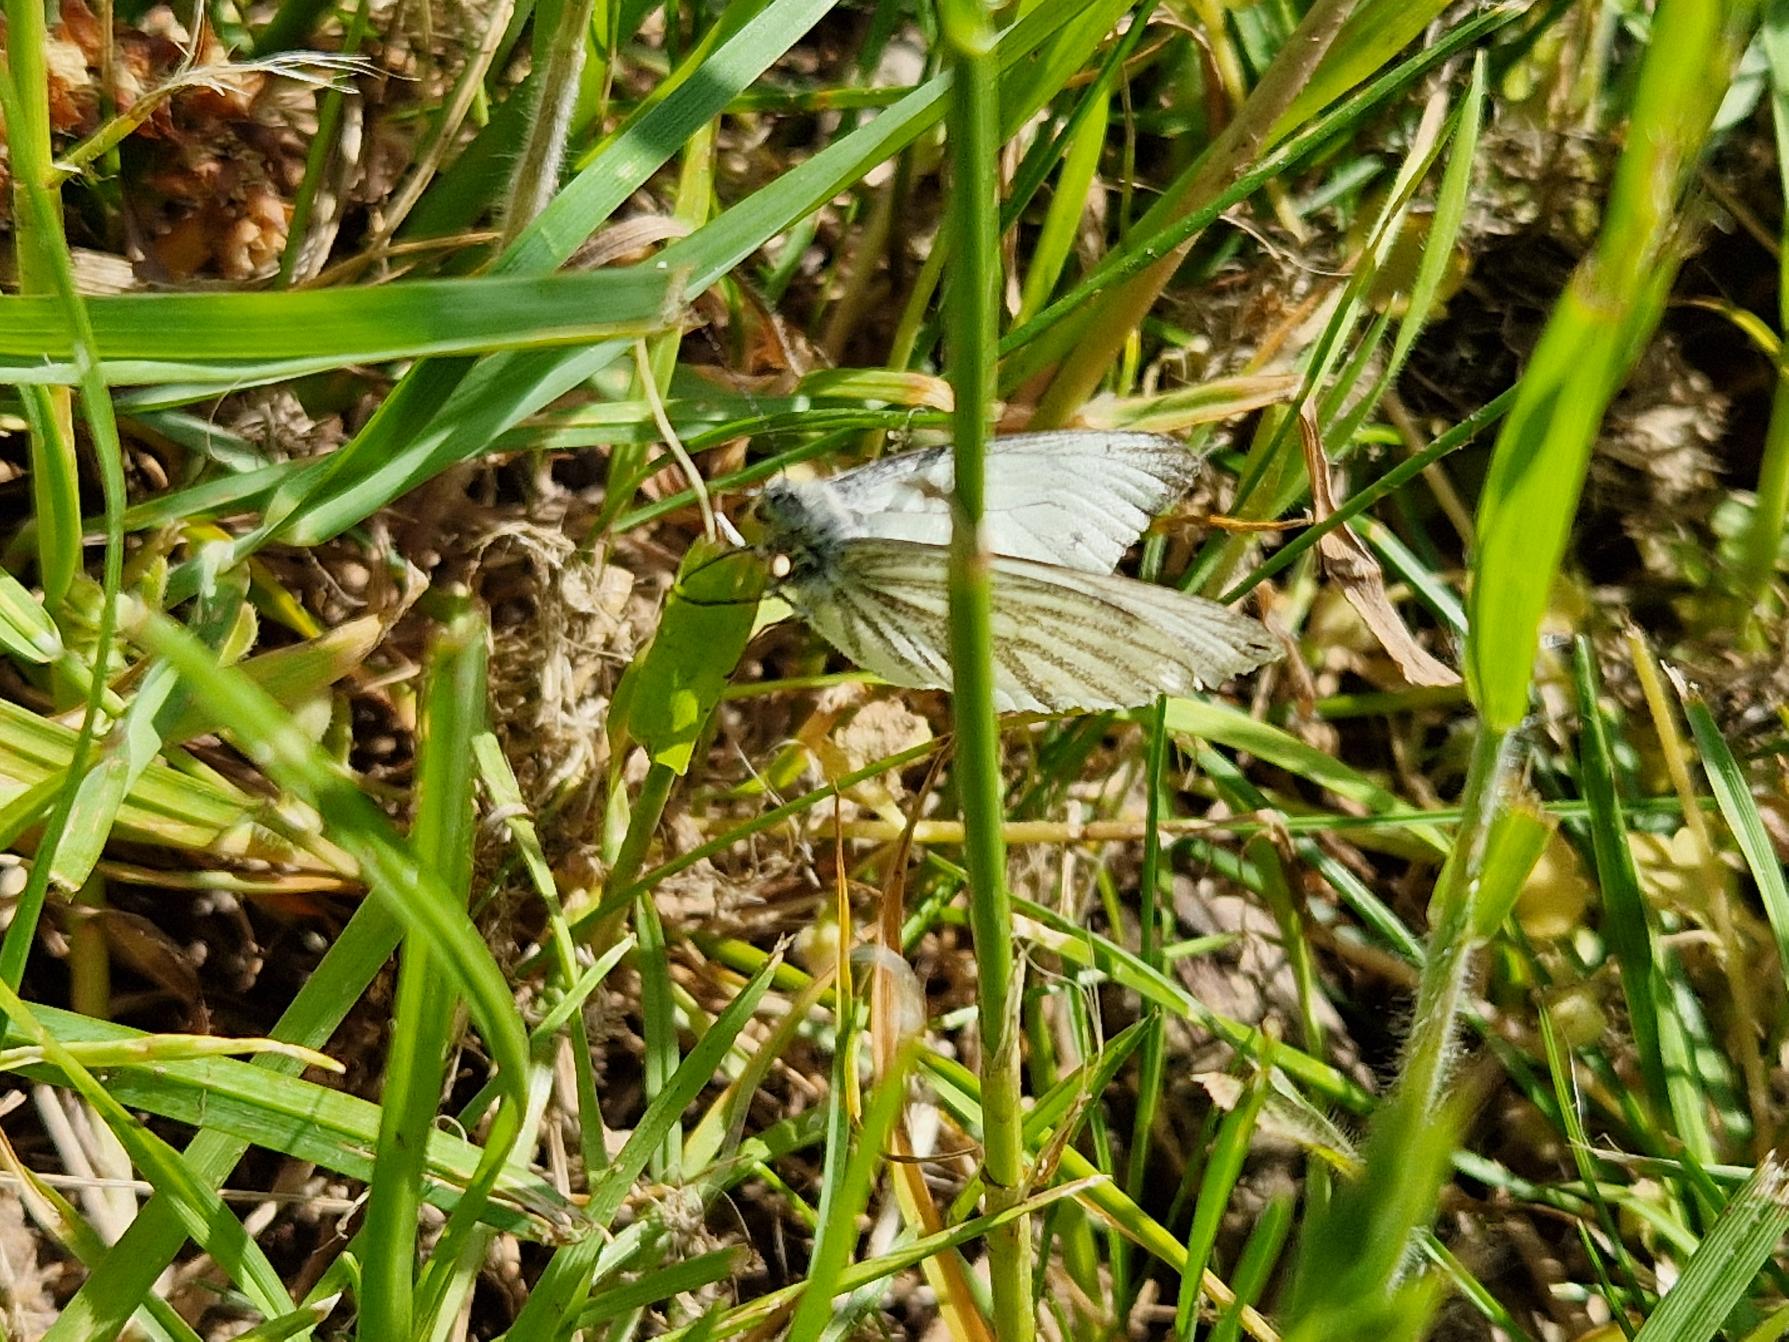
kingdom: Animalia
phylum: Arthropoda
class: Insecta
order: Lepidoptera
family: Pieridae
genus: Pieris
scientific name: Pieris napi
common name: Grønåret kålsommerfugl
